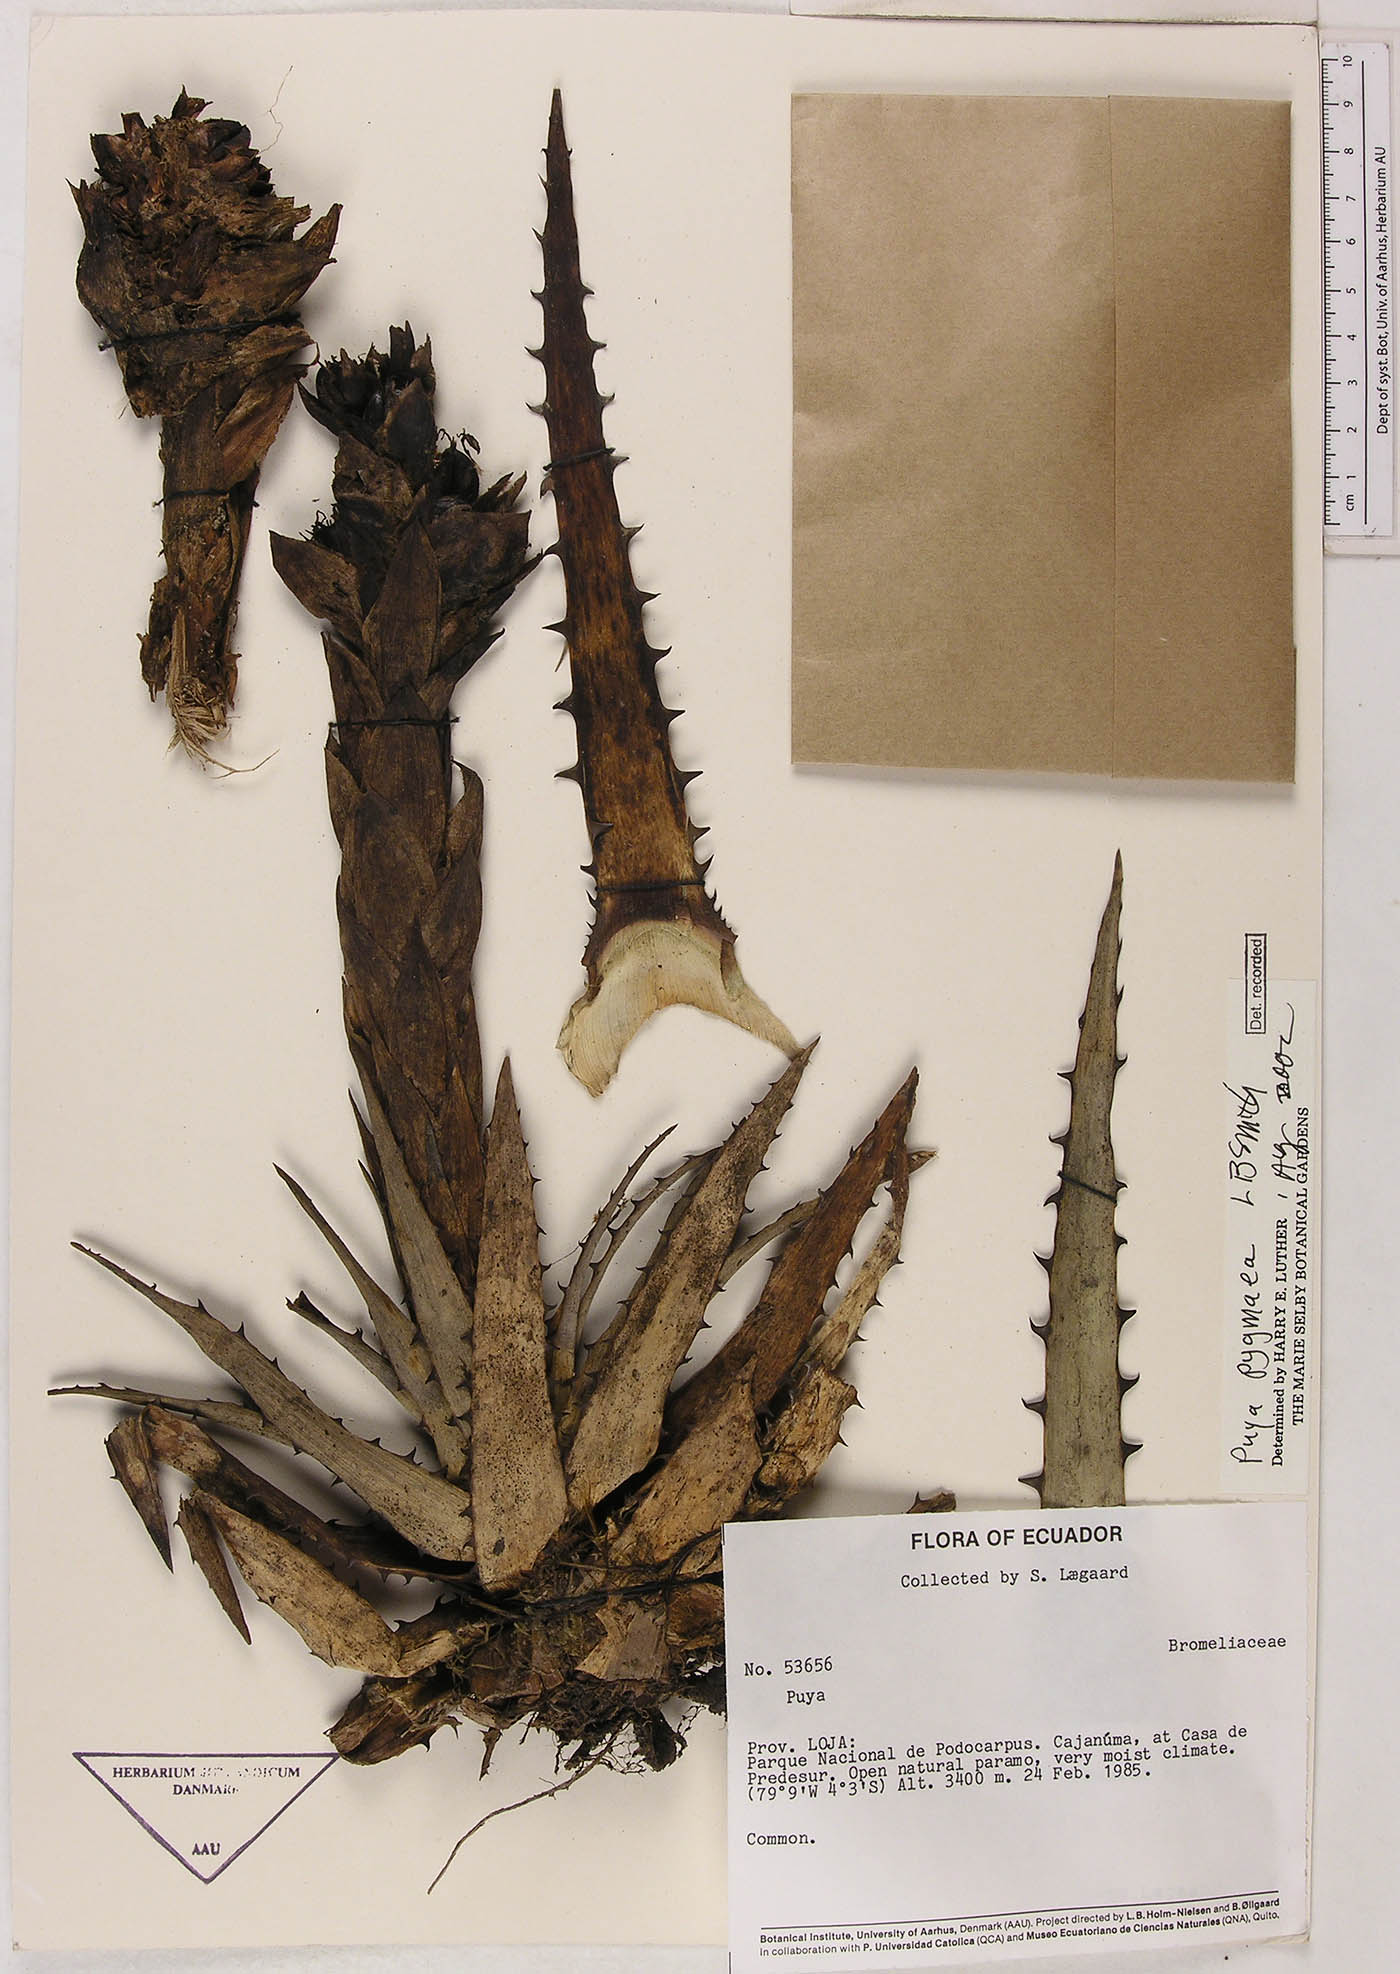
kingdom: Plantae
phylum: Tracheophyta
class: Liliopsida
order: Poales
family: Bromeliaceae
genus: Puya
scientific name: Puya pygmaea
